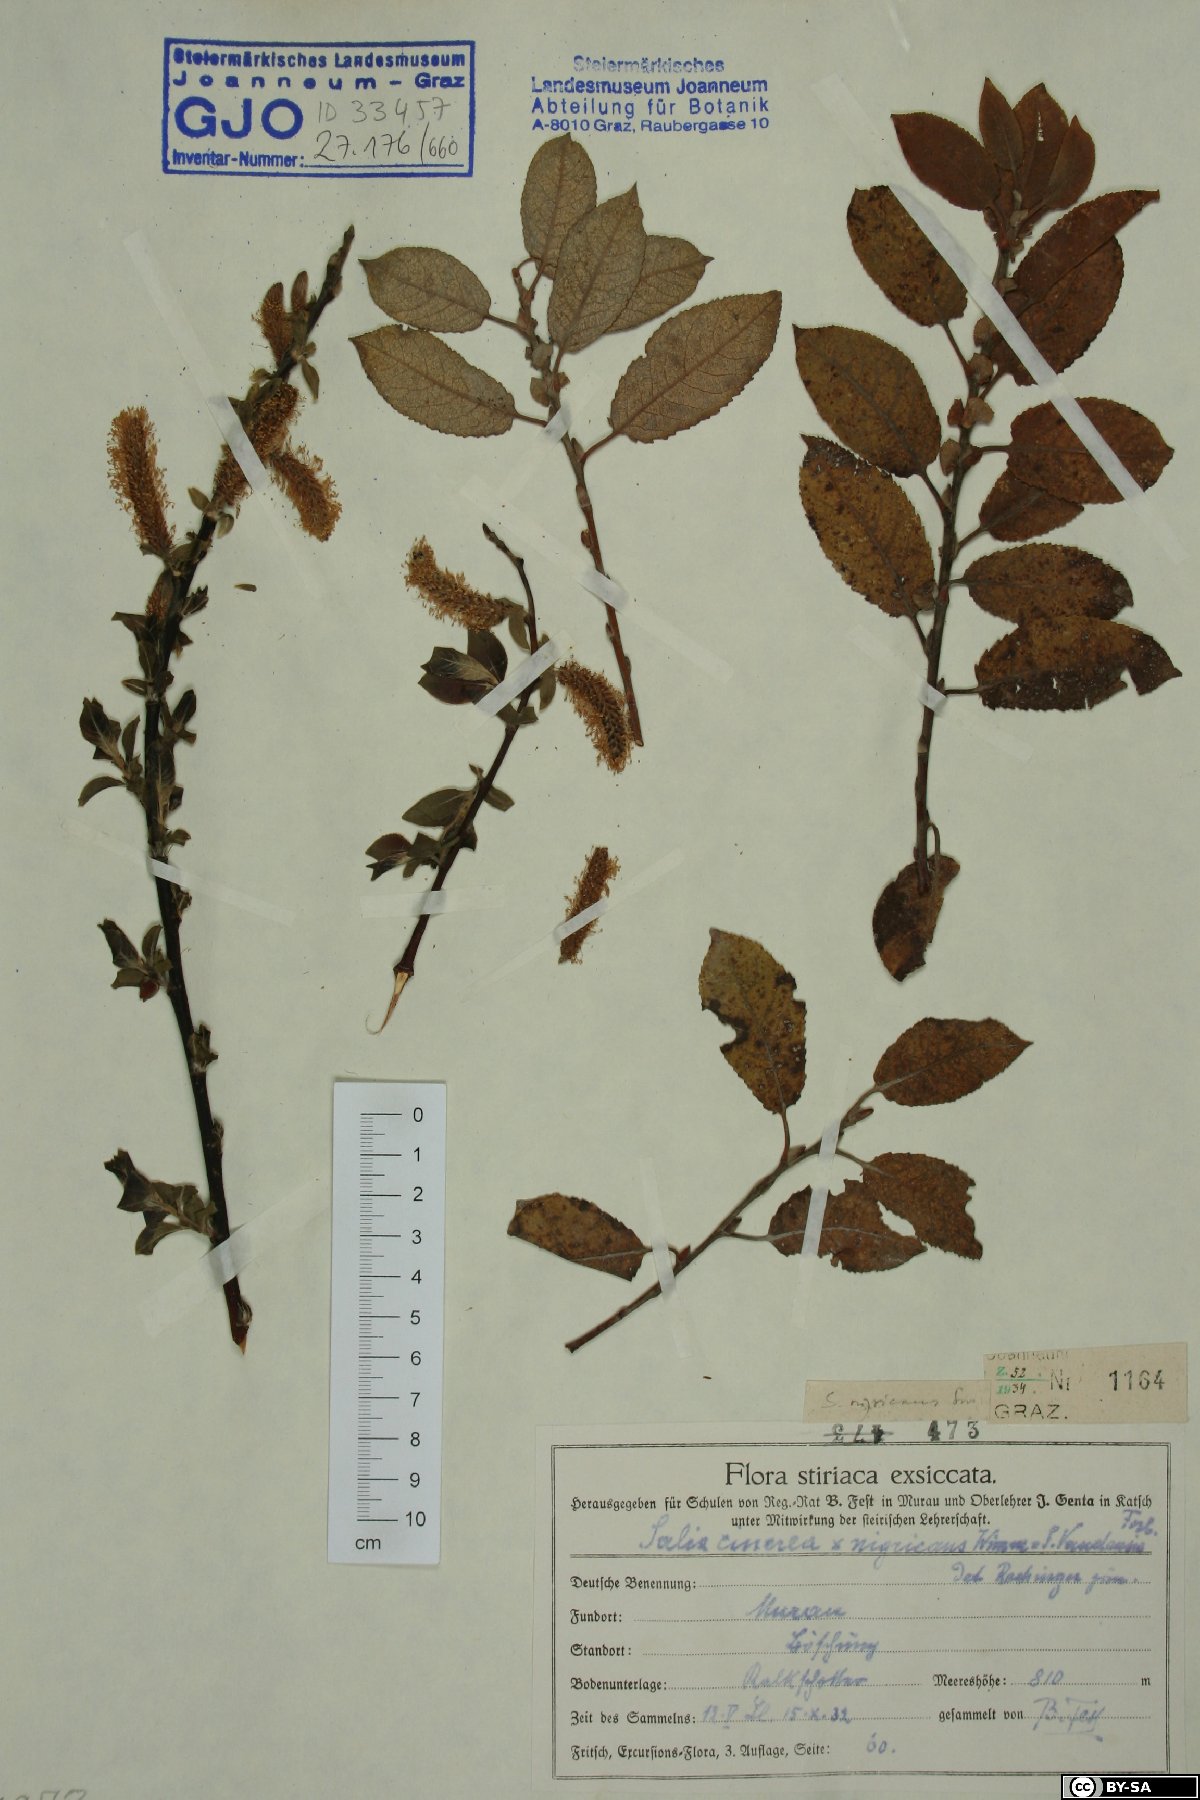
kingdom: Plantae
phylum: Tracheophyta
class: Magnoliopsida
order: Malpighiales
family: Salicaceae
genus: Salix
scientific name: Salix myrsinifolia
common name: Dark-leaved willow
